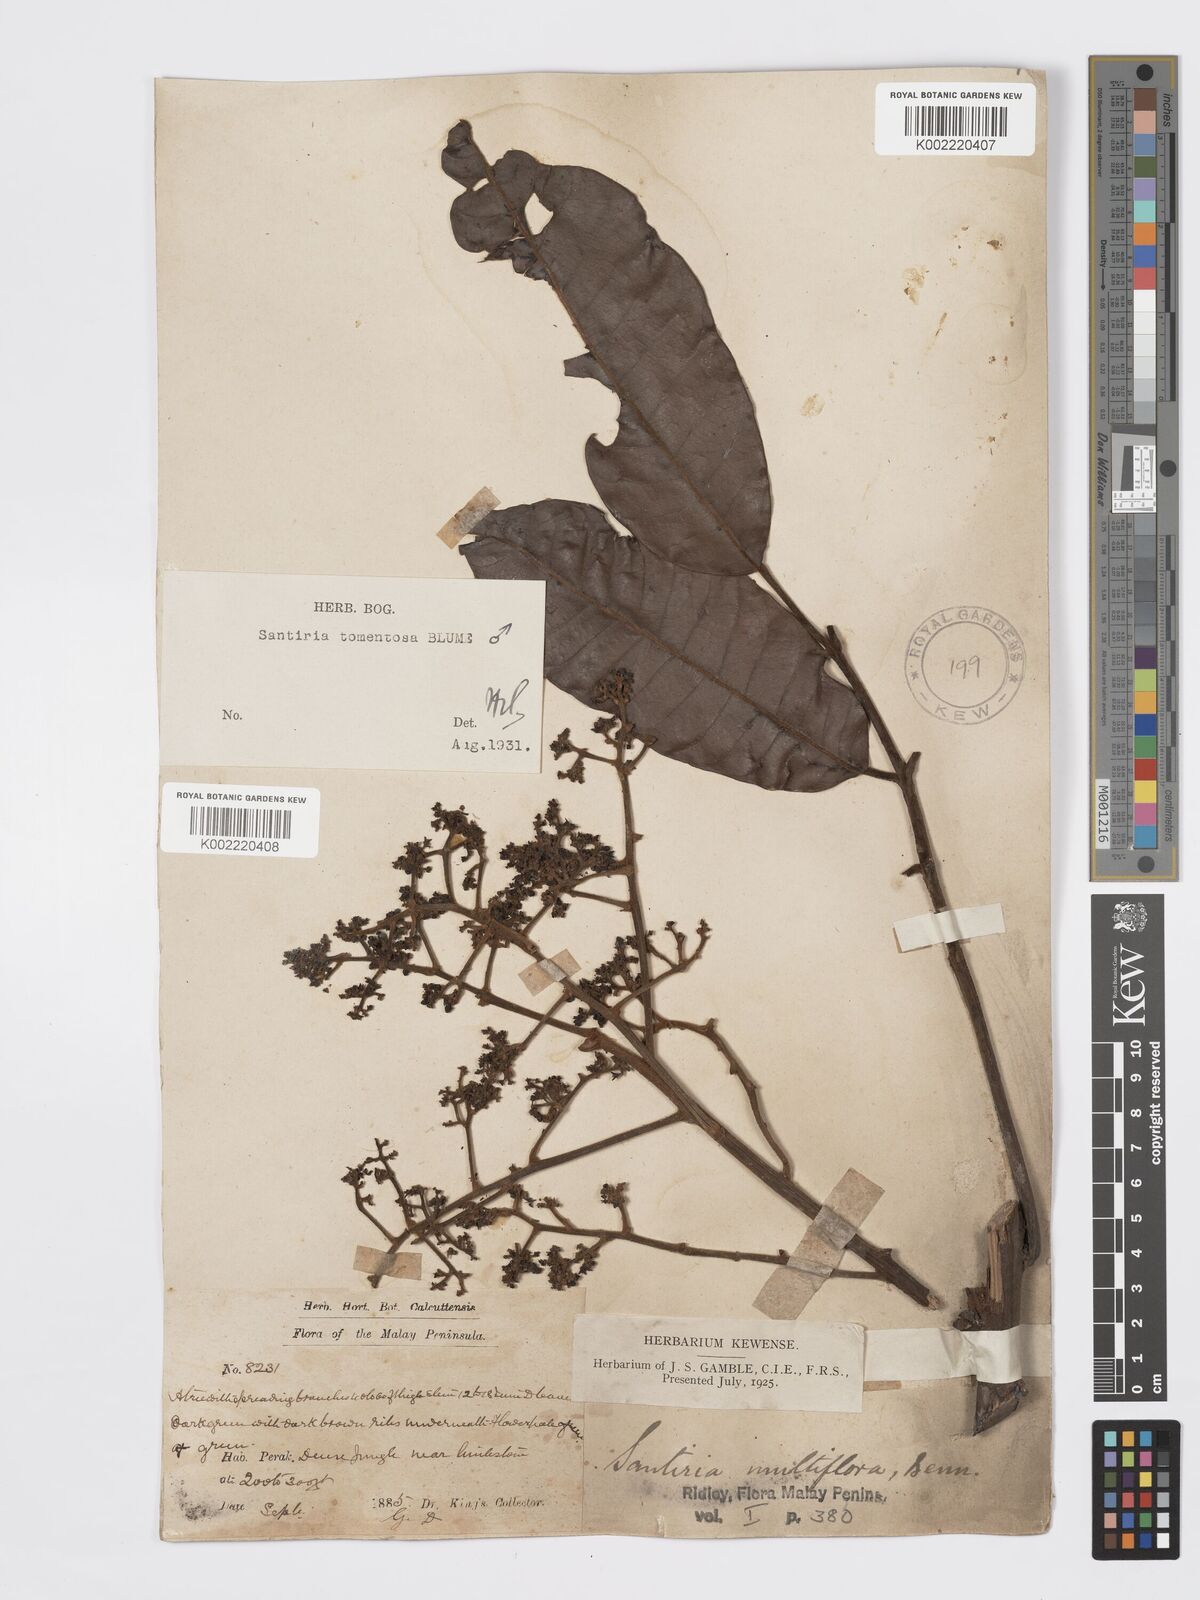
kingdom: Plantae
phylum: Tracheophyta
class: Magnoliopsida
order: Sapindales
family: Burseraceae
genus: Santiria
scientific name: Santiria tomentosa
